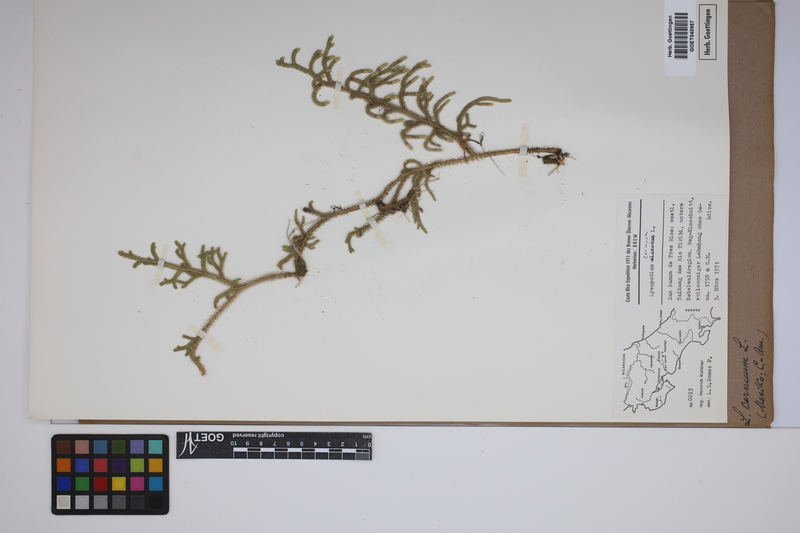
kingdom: Plantae
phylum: Tracheophyta
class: Lycopodiopsida
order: Lycopodiales
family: Lycopodiaceae
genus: Palhinhaea
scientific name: Palhinhaea cernua
